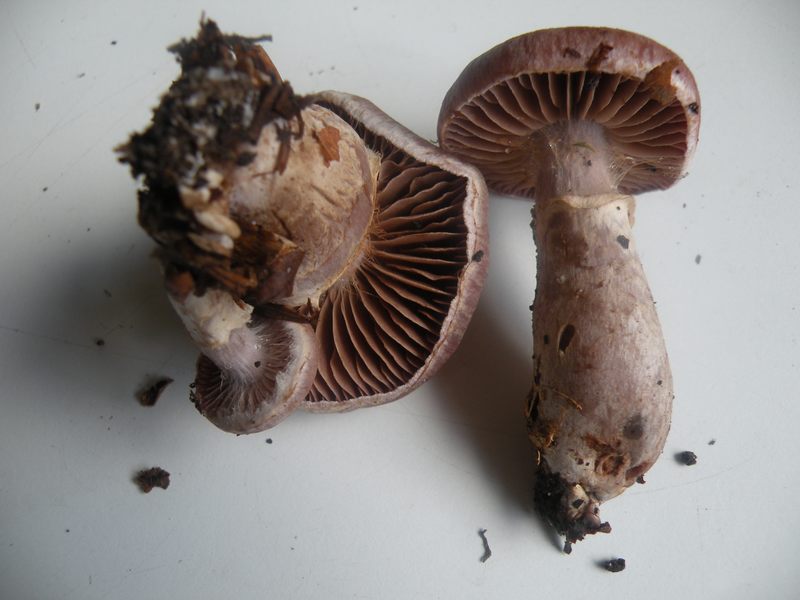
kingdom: Fungi
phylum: Basidiomycota
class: Agaricomycetes
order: Agaricales
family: Cortinariaceae
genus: Cortinarius
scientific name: Cortinarius torvus
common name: champignonagtig slørhat
